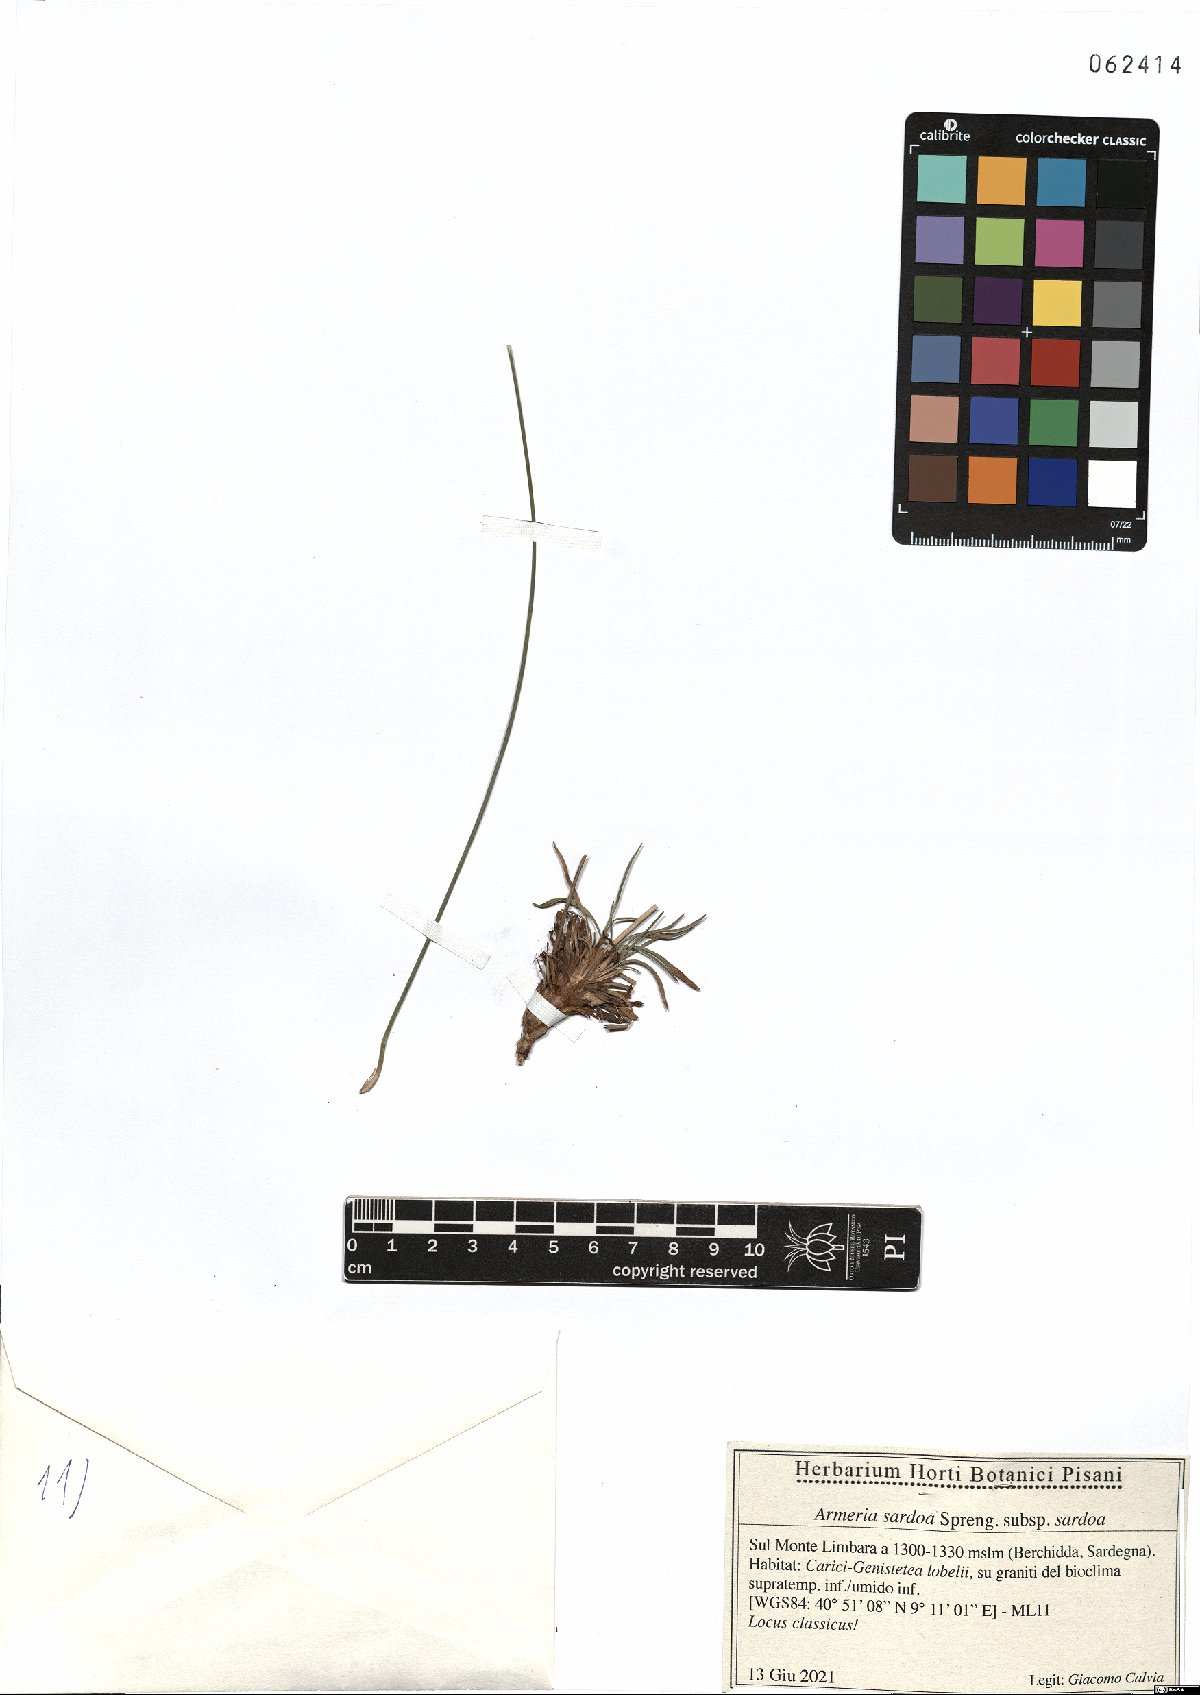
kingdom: Plantae
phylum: Tracheophyta
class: Magnoliopsida
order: Caryophyllales
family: Plumbaginaceae
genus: Armeria
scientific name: Armeria sardoa
